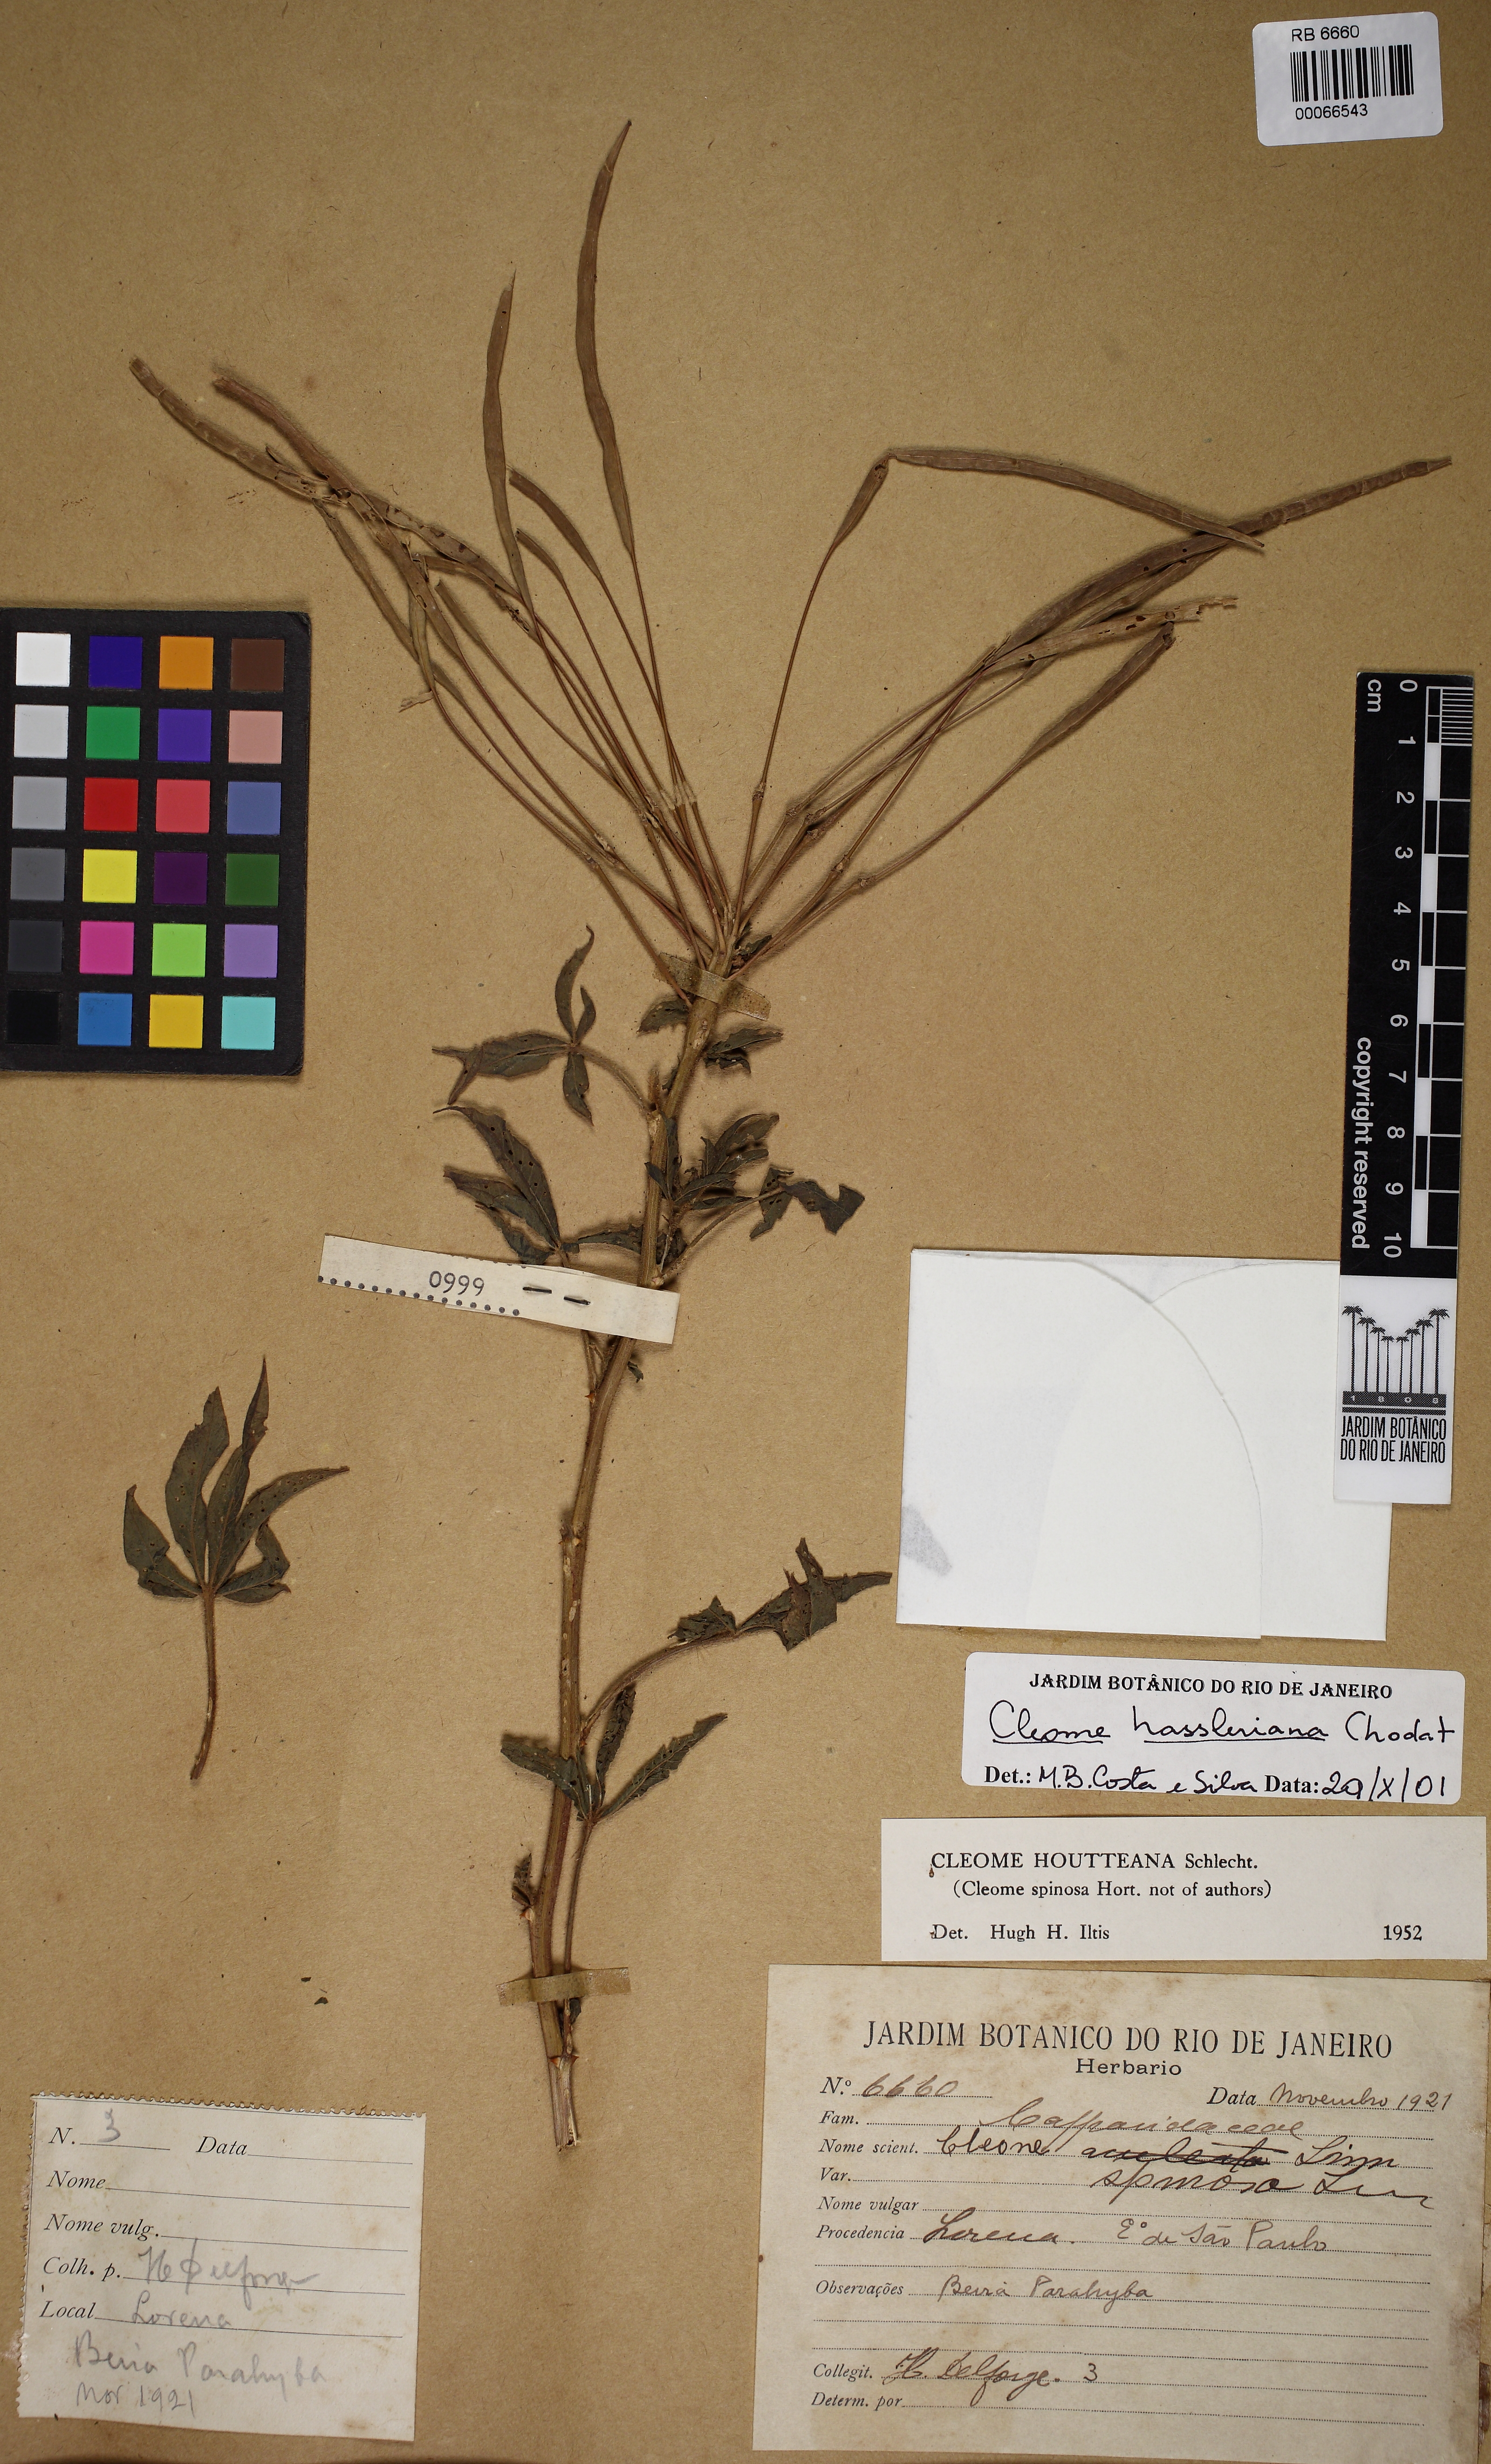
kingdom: Plantae
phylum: Tracheophyta
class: Magnoliopsida
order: Brassicales
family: Cleomaceae
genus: Tarenaya
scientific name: Tarenaya houtteana
